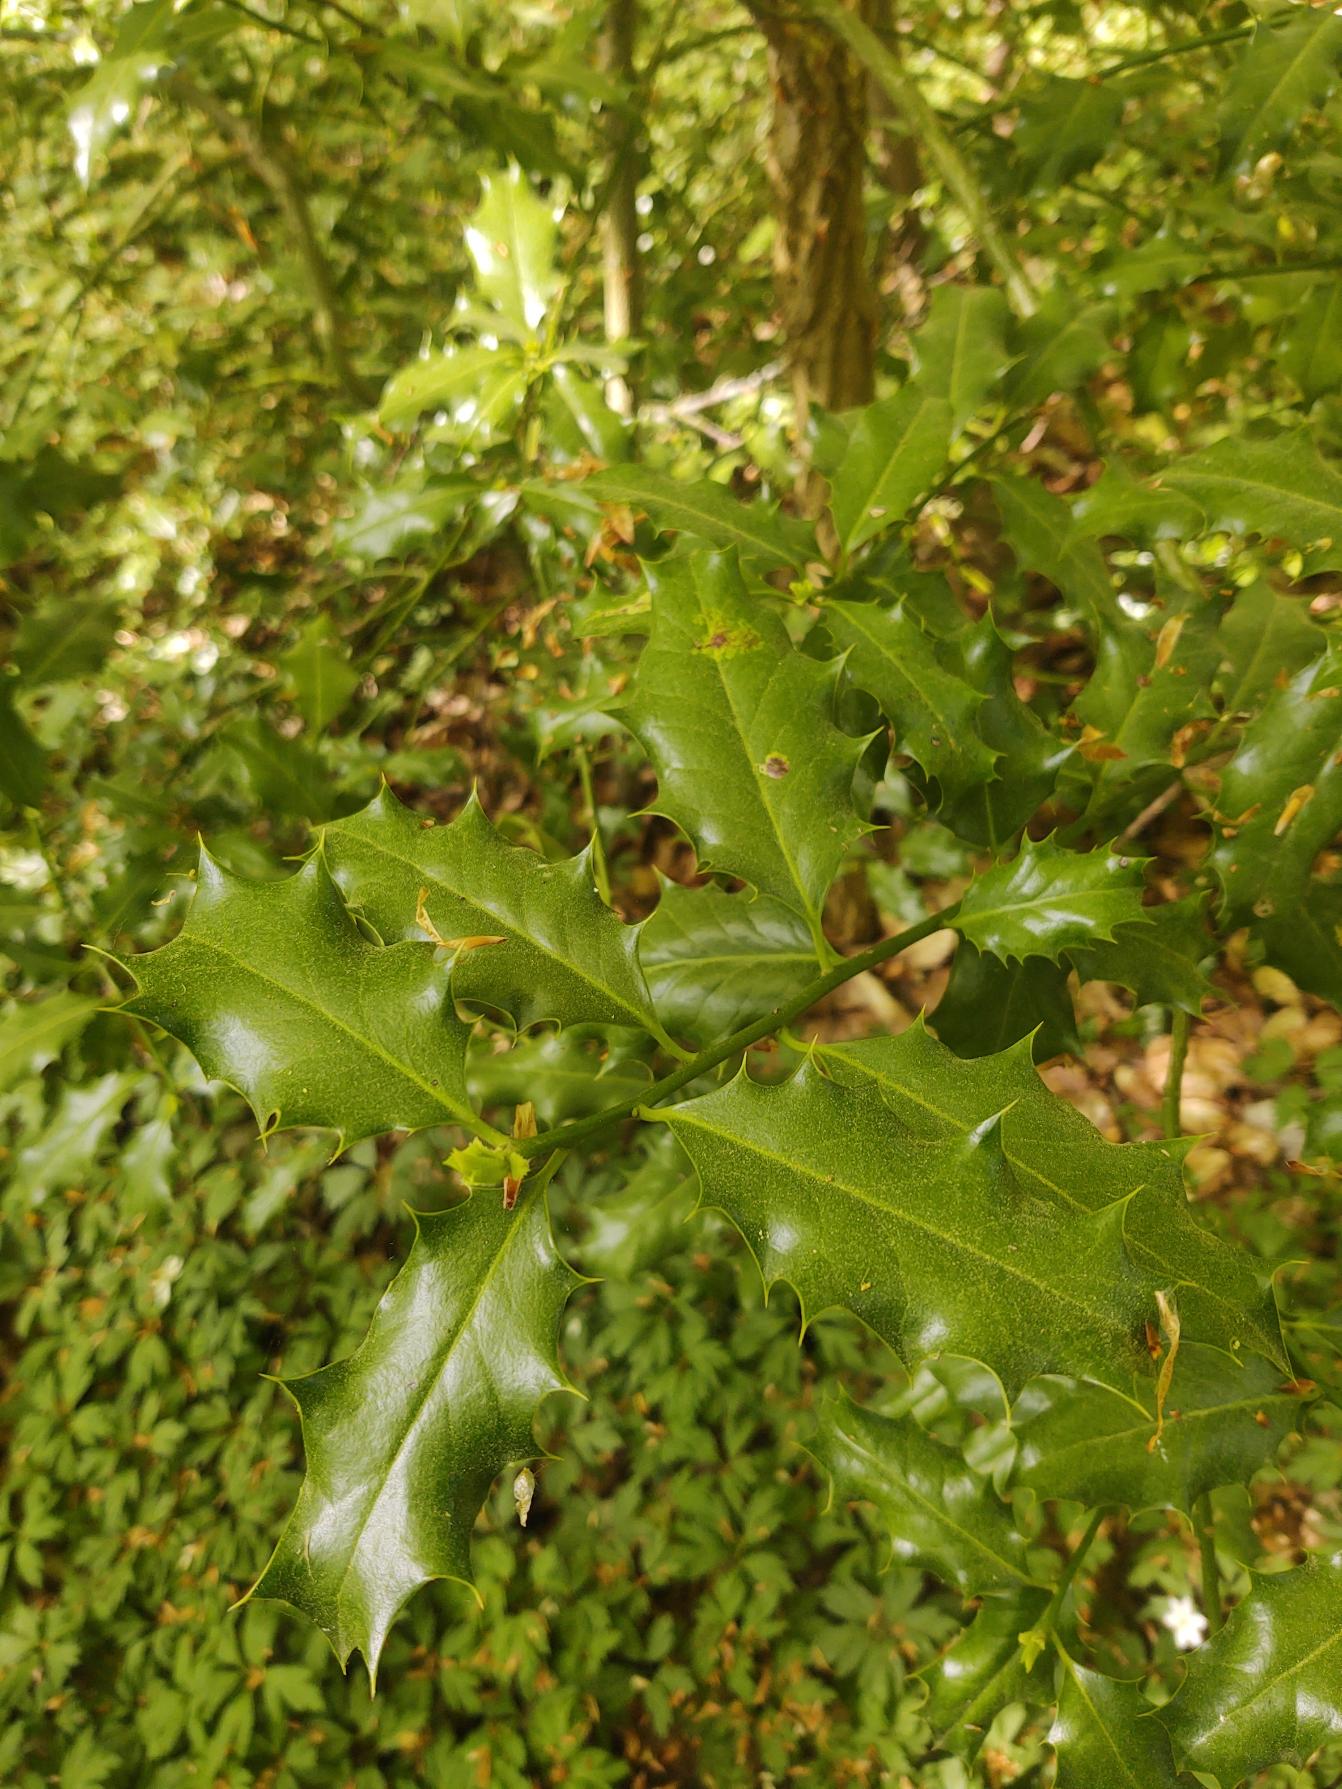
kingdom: Plantae
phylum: Tracheophyta
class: Magnoliopsida
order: Aquifoliales
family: Aquifoliaceae
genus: Ilex
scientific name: Ilex aquifolium
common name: Kristtorn
